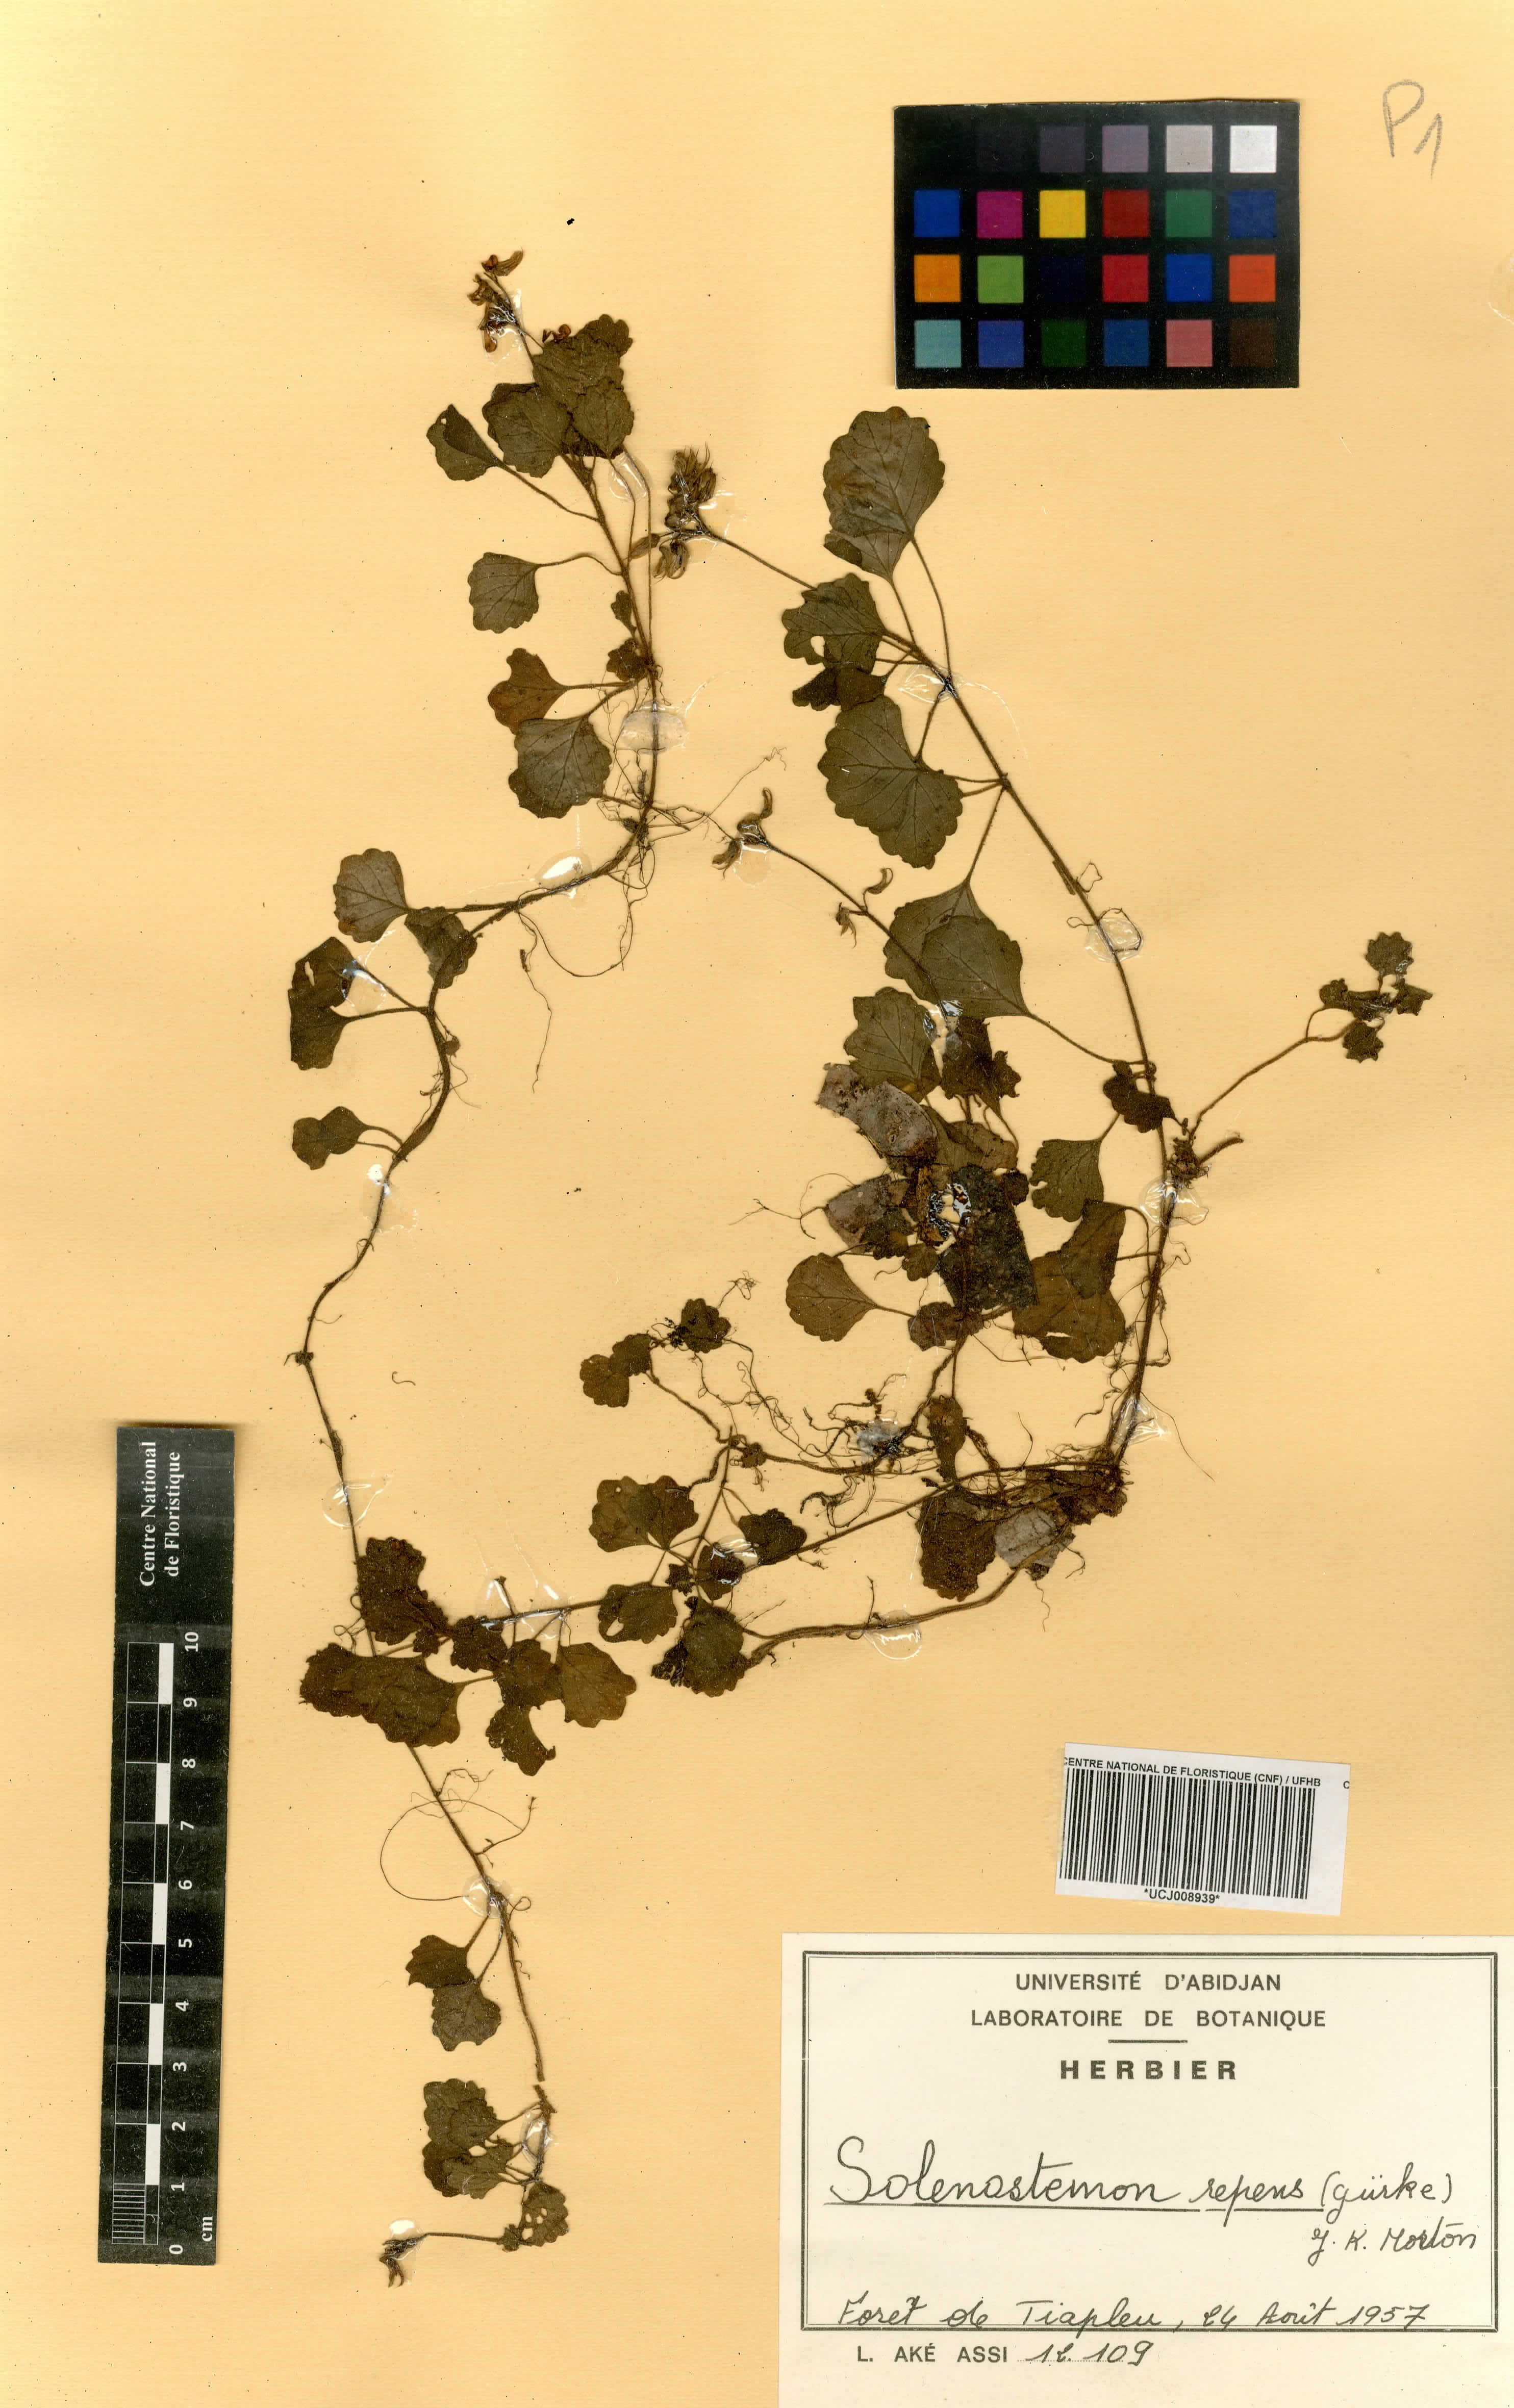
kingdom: Plantae
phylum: Tracheophyta
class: Magnoliopsida
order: Lamiales
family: Lamiaceae
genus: Coleus
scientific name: Coleus repens
